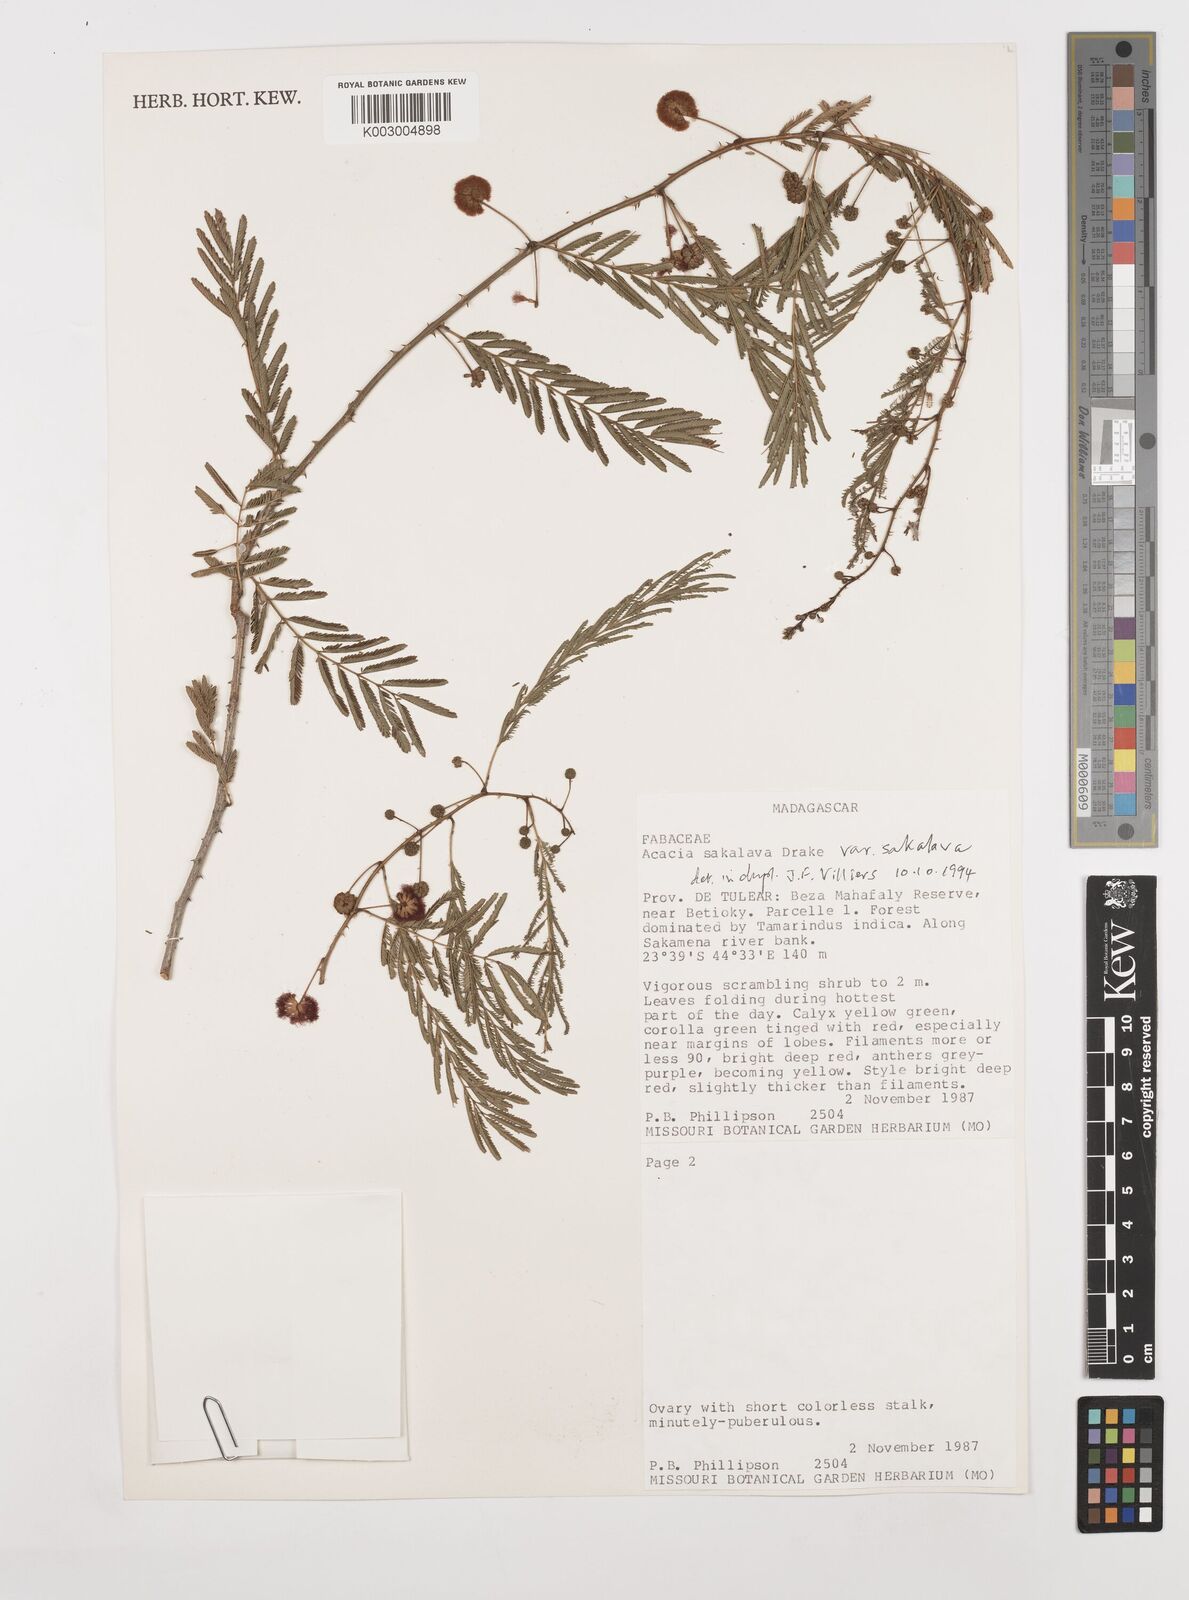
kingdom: Plantae
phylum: Tracheophyta
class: Magnoliopsida
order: Fabales
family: Fabaceae
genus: Senegalia
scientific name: Senegalia sakalava
